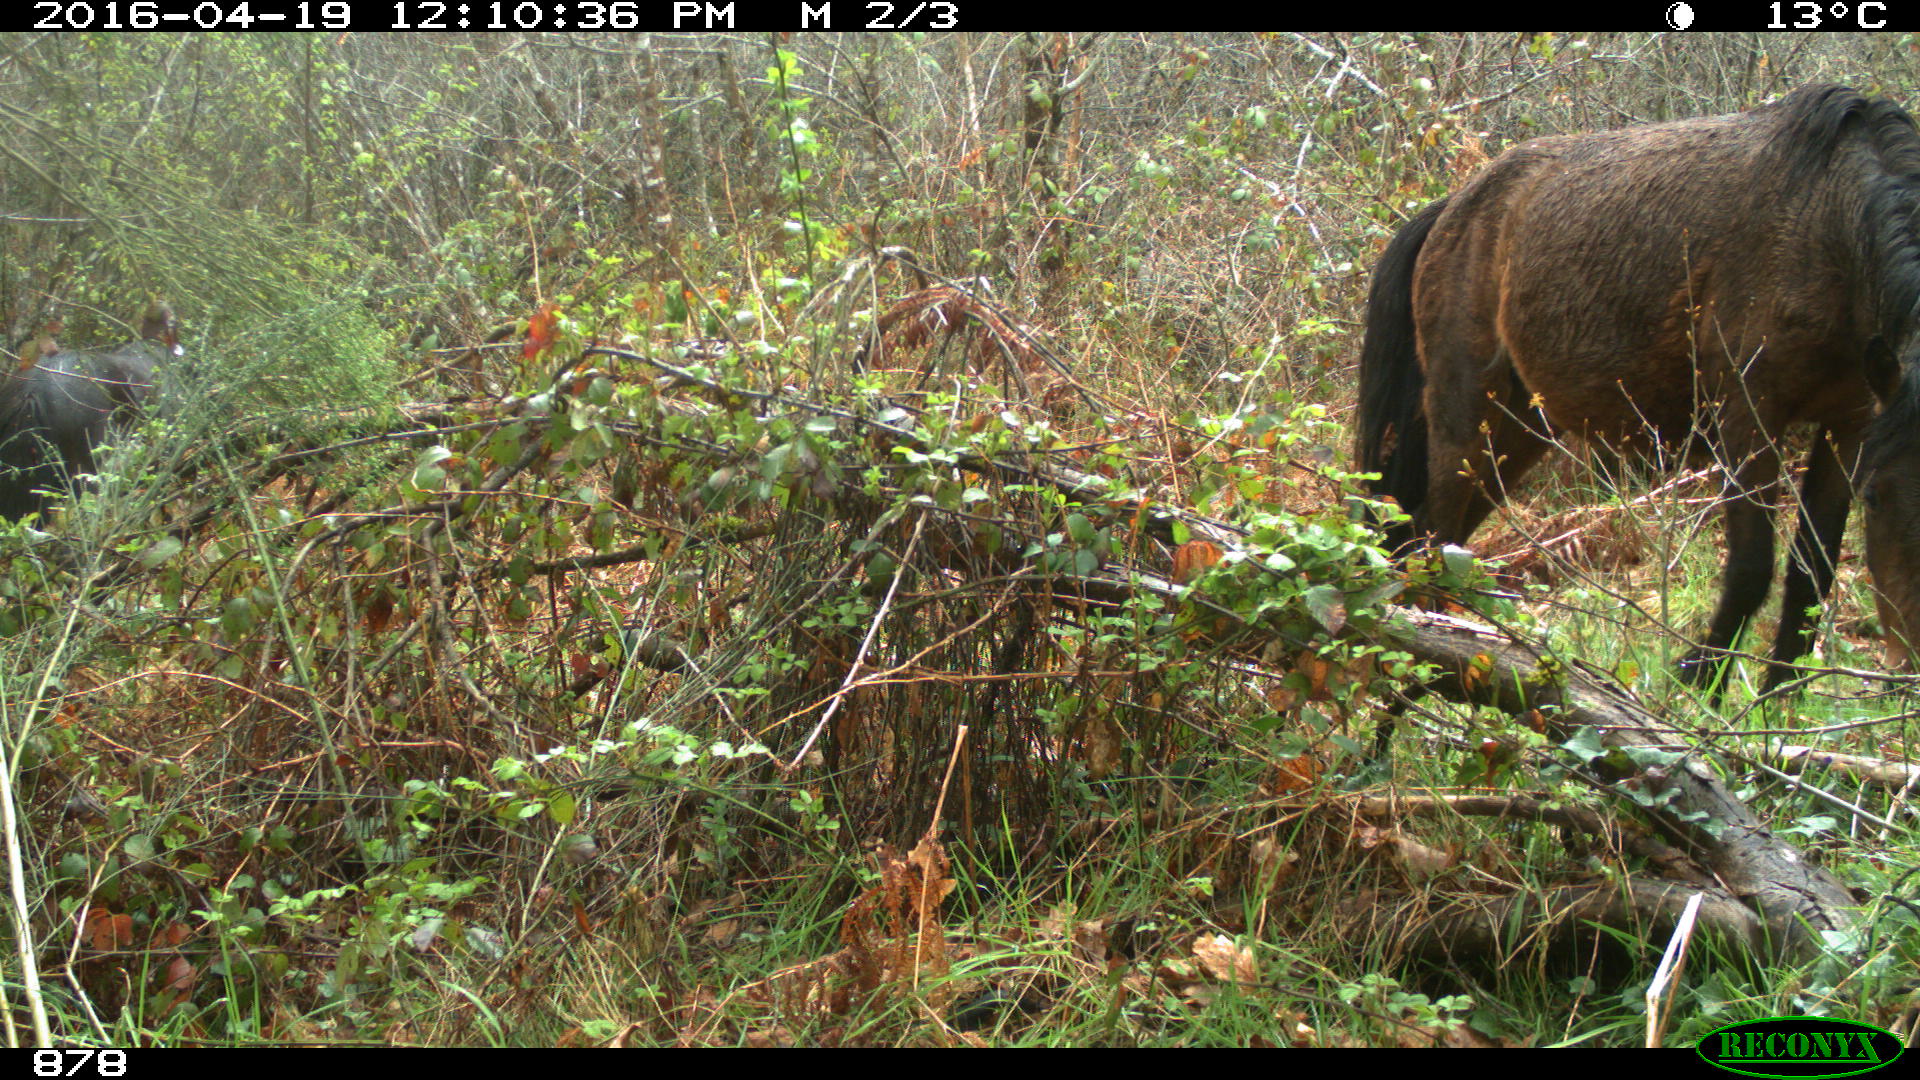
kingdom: Animalia
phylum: Chordata
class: Mammalia
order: Perissodactyla
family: Equidae
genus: Equus
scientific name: Equus caballus
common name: Horse
